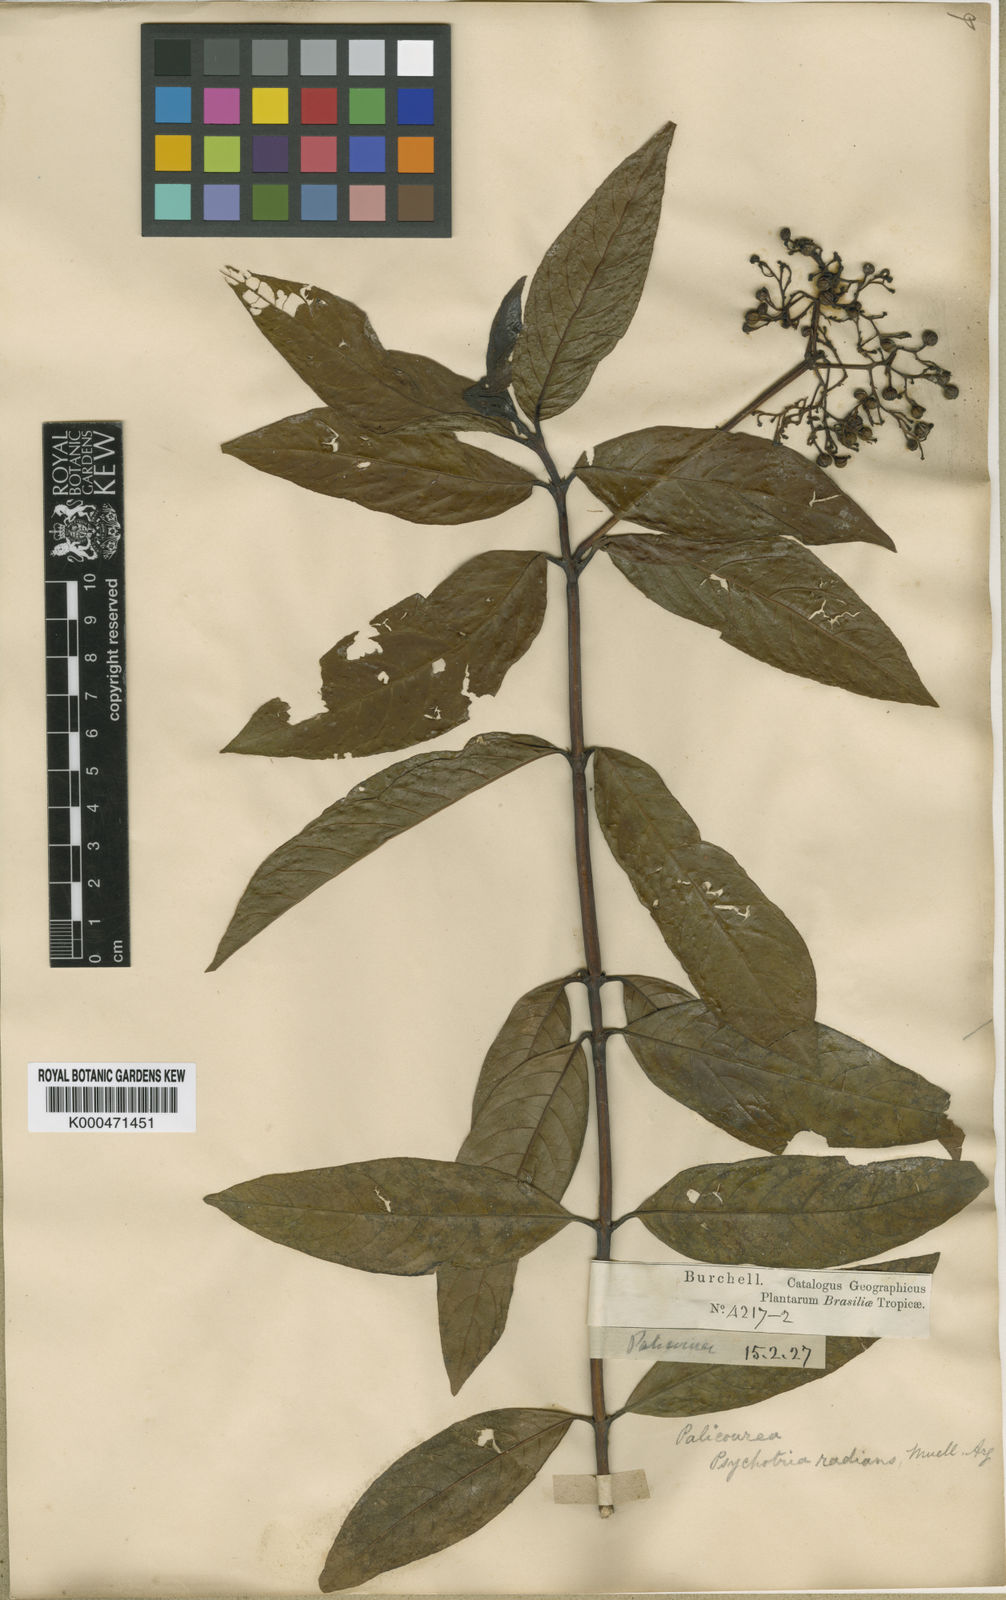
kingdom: Plantae
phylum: Tracheophyta
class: Magnoliopsida
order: Gentianales
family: Rubiaceae
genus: Palicourea
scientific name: Palicourea
